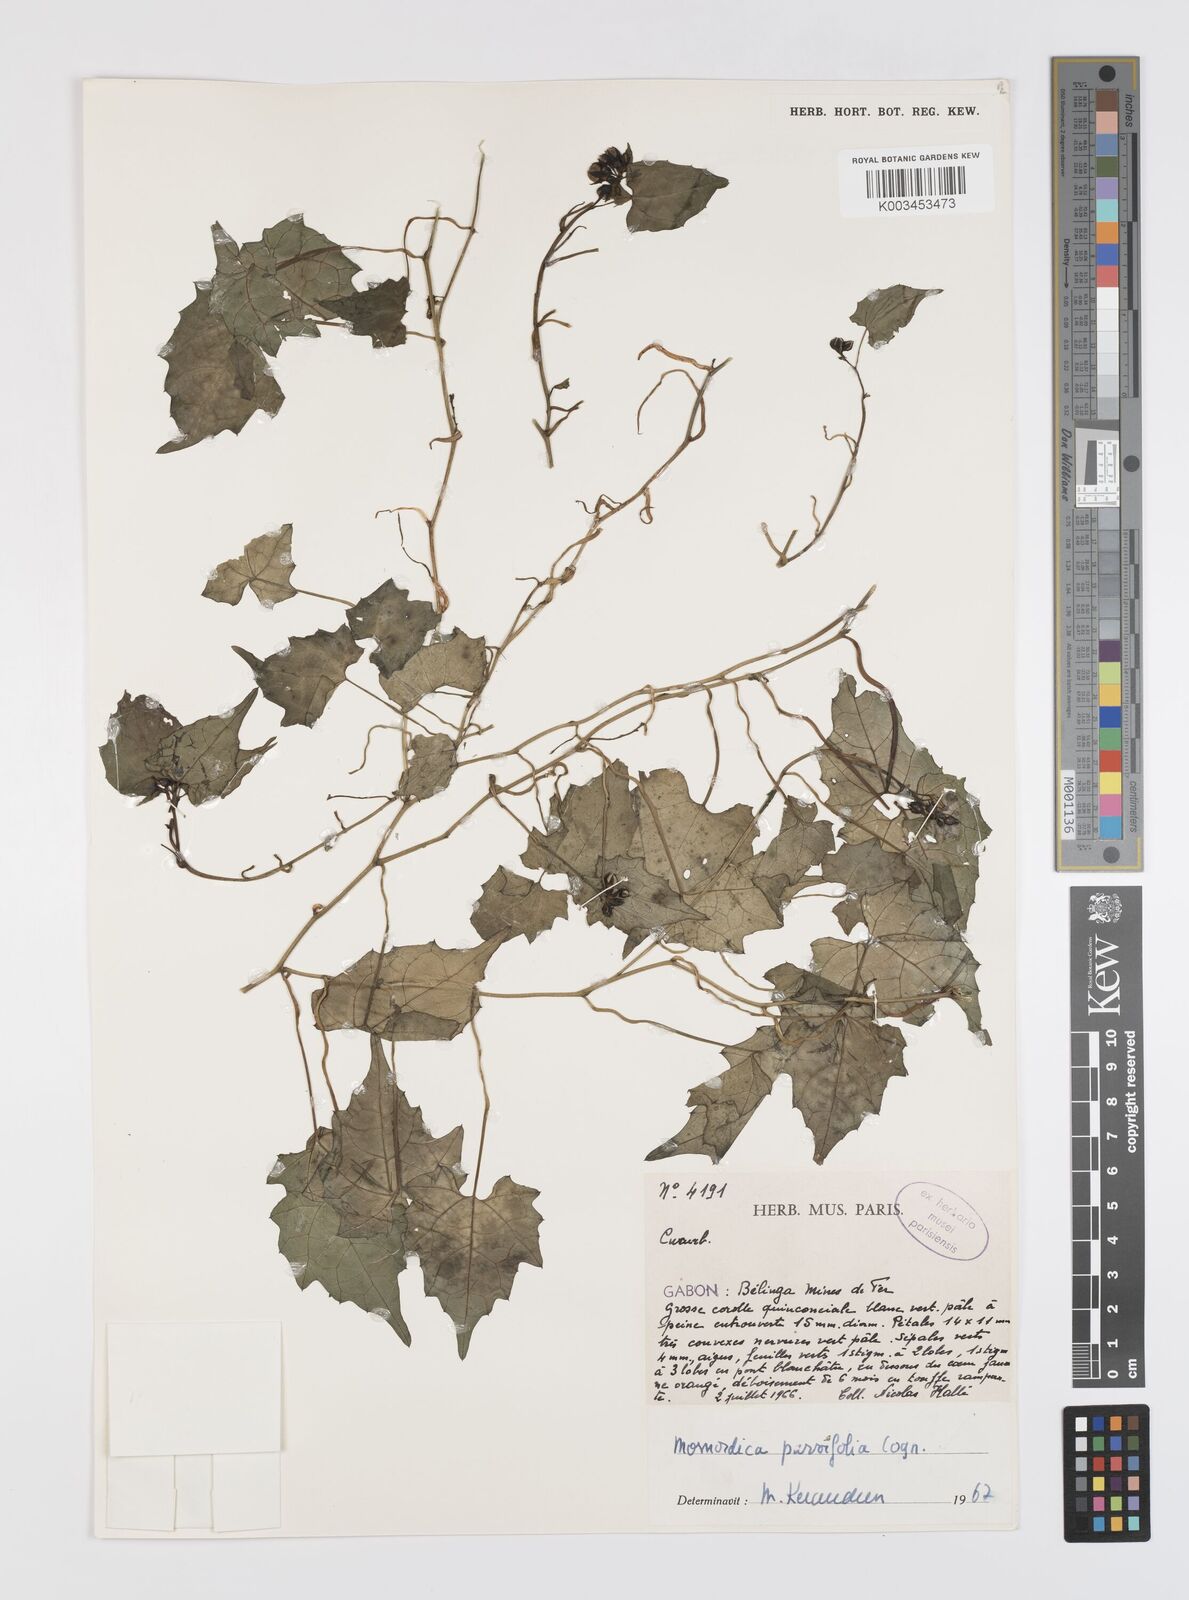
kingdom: Plantae
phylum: Tracheophyta
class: Magnoliopsida
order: Cucurbitales
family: Cucurbitaceae
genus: Momordica
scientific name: Momordica parvifolia
